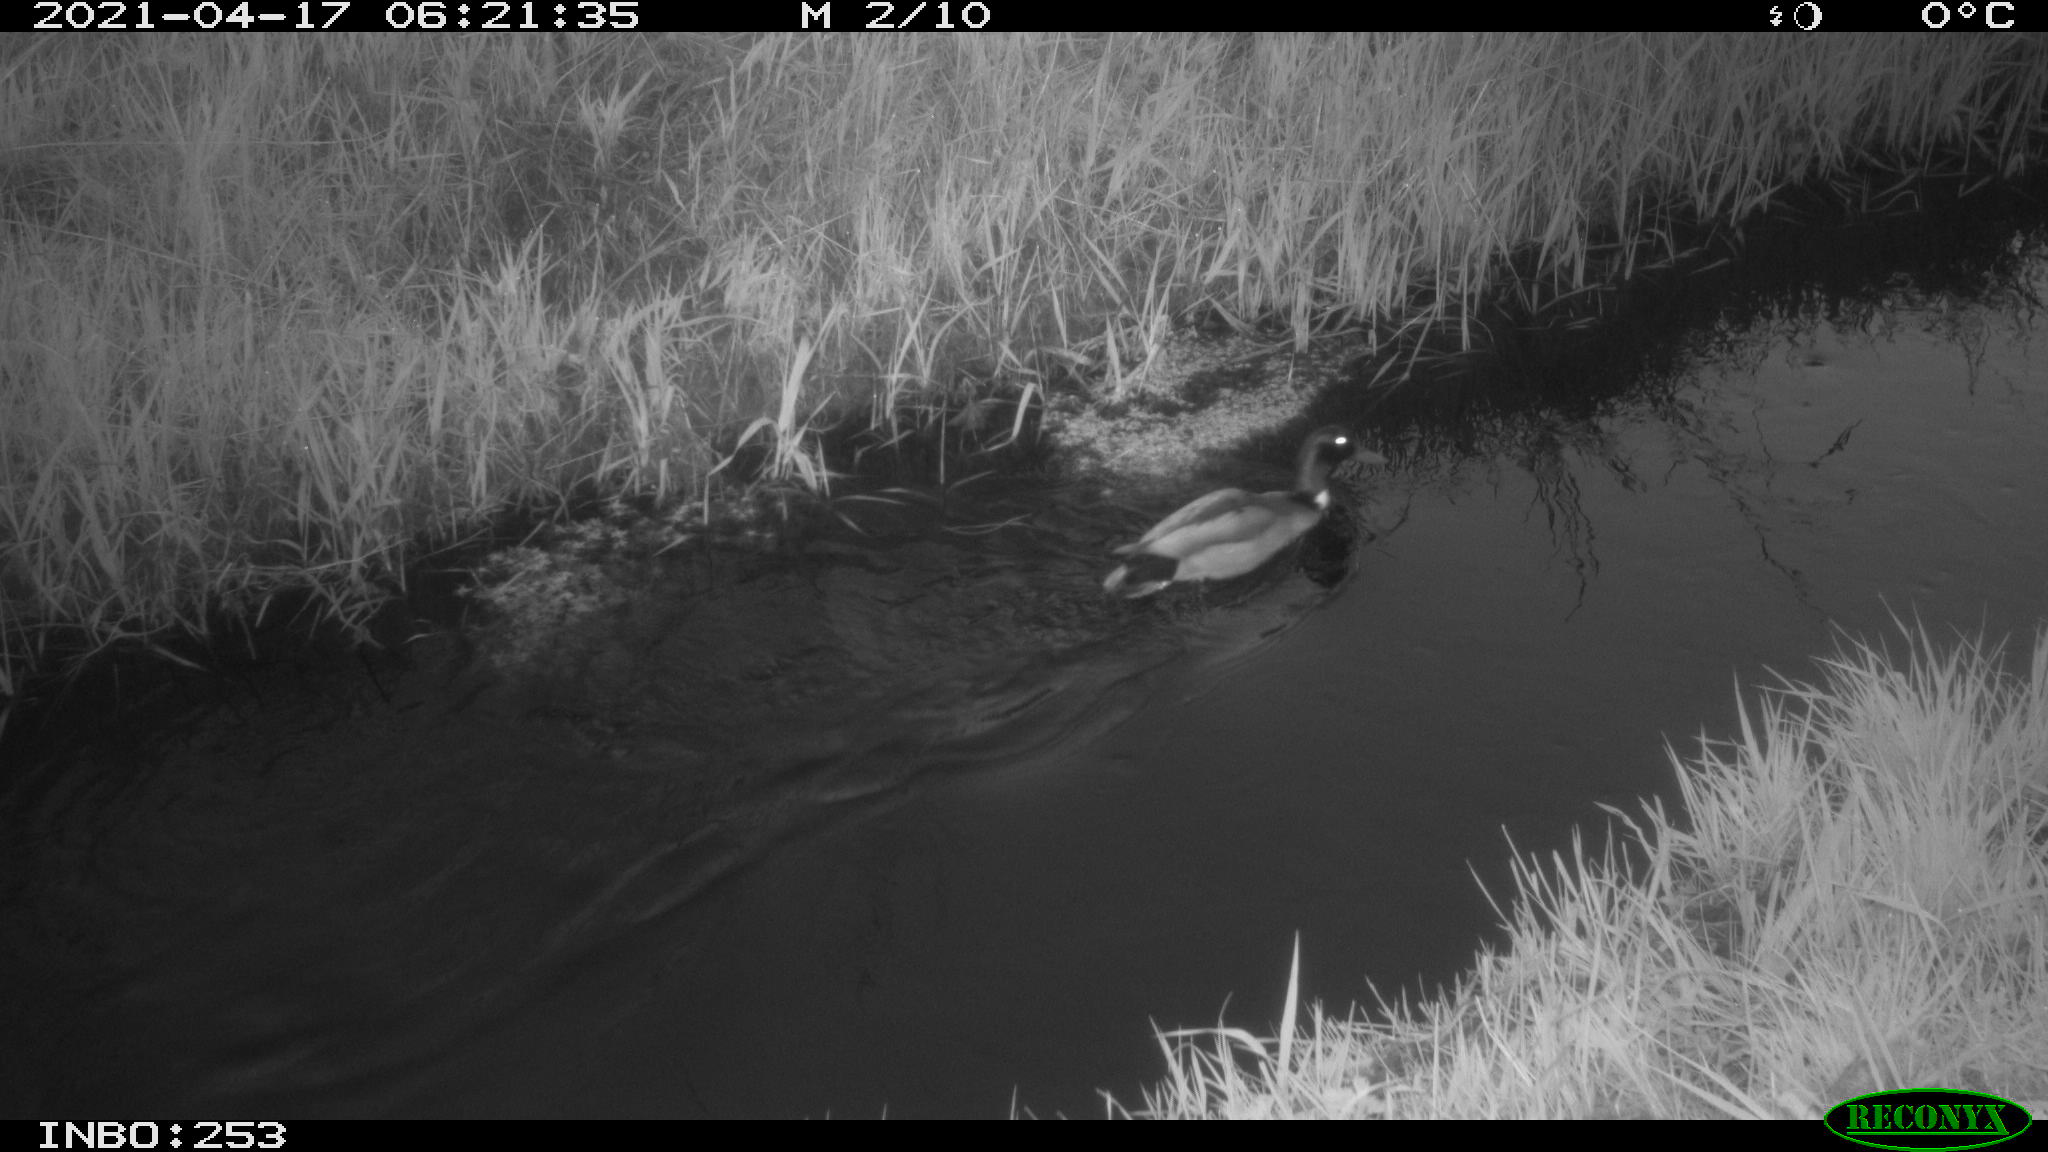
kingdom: Animalia
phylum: Chordata
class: Aves
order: Anseriformes
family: Anatidae
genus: Anas
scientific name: Anas platyrhynchos
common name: Mallard
